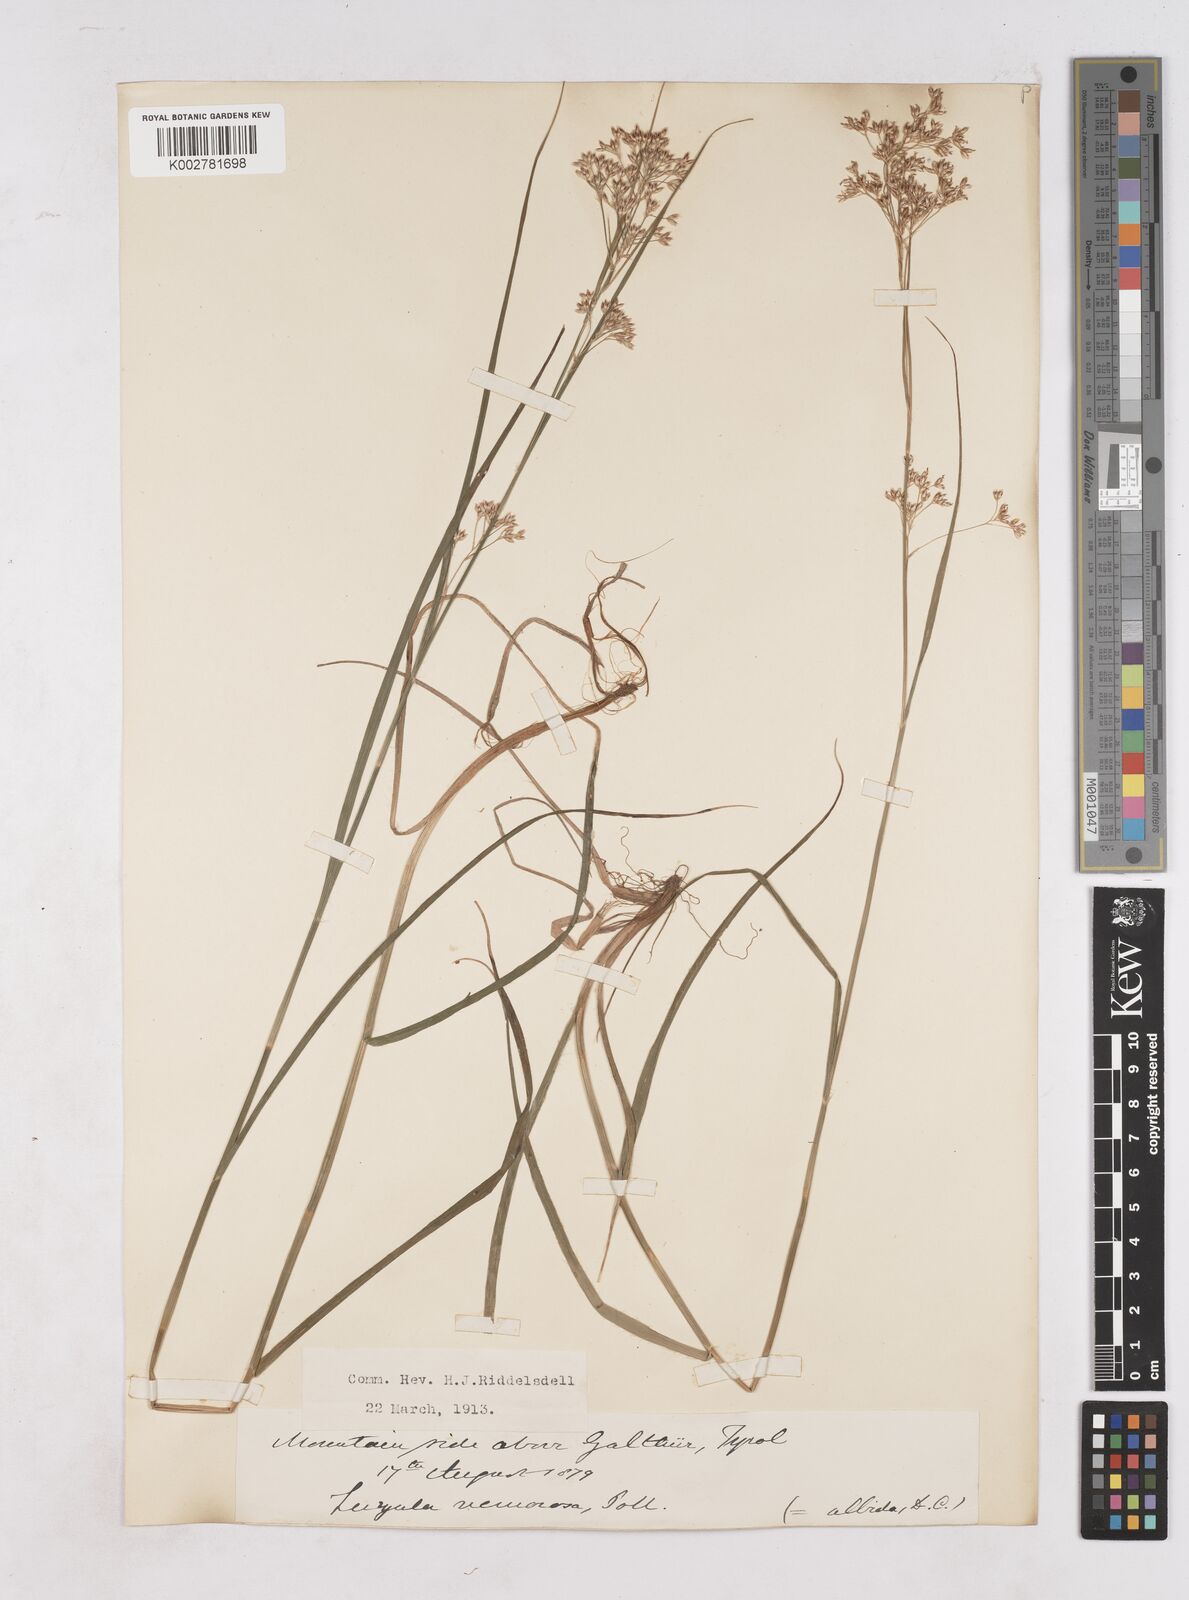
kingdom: Plantae
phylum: Tracheophyta
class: Liliopsida
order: Poales
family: Juncaceae
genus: Luzula
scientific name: Luzula luzuloides
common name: White wood-rush
